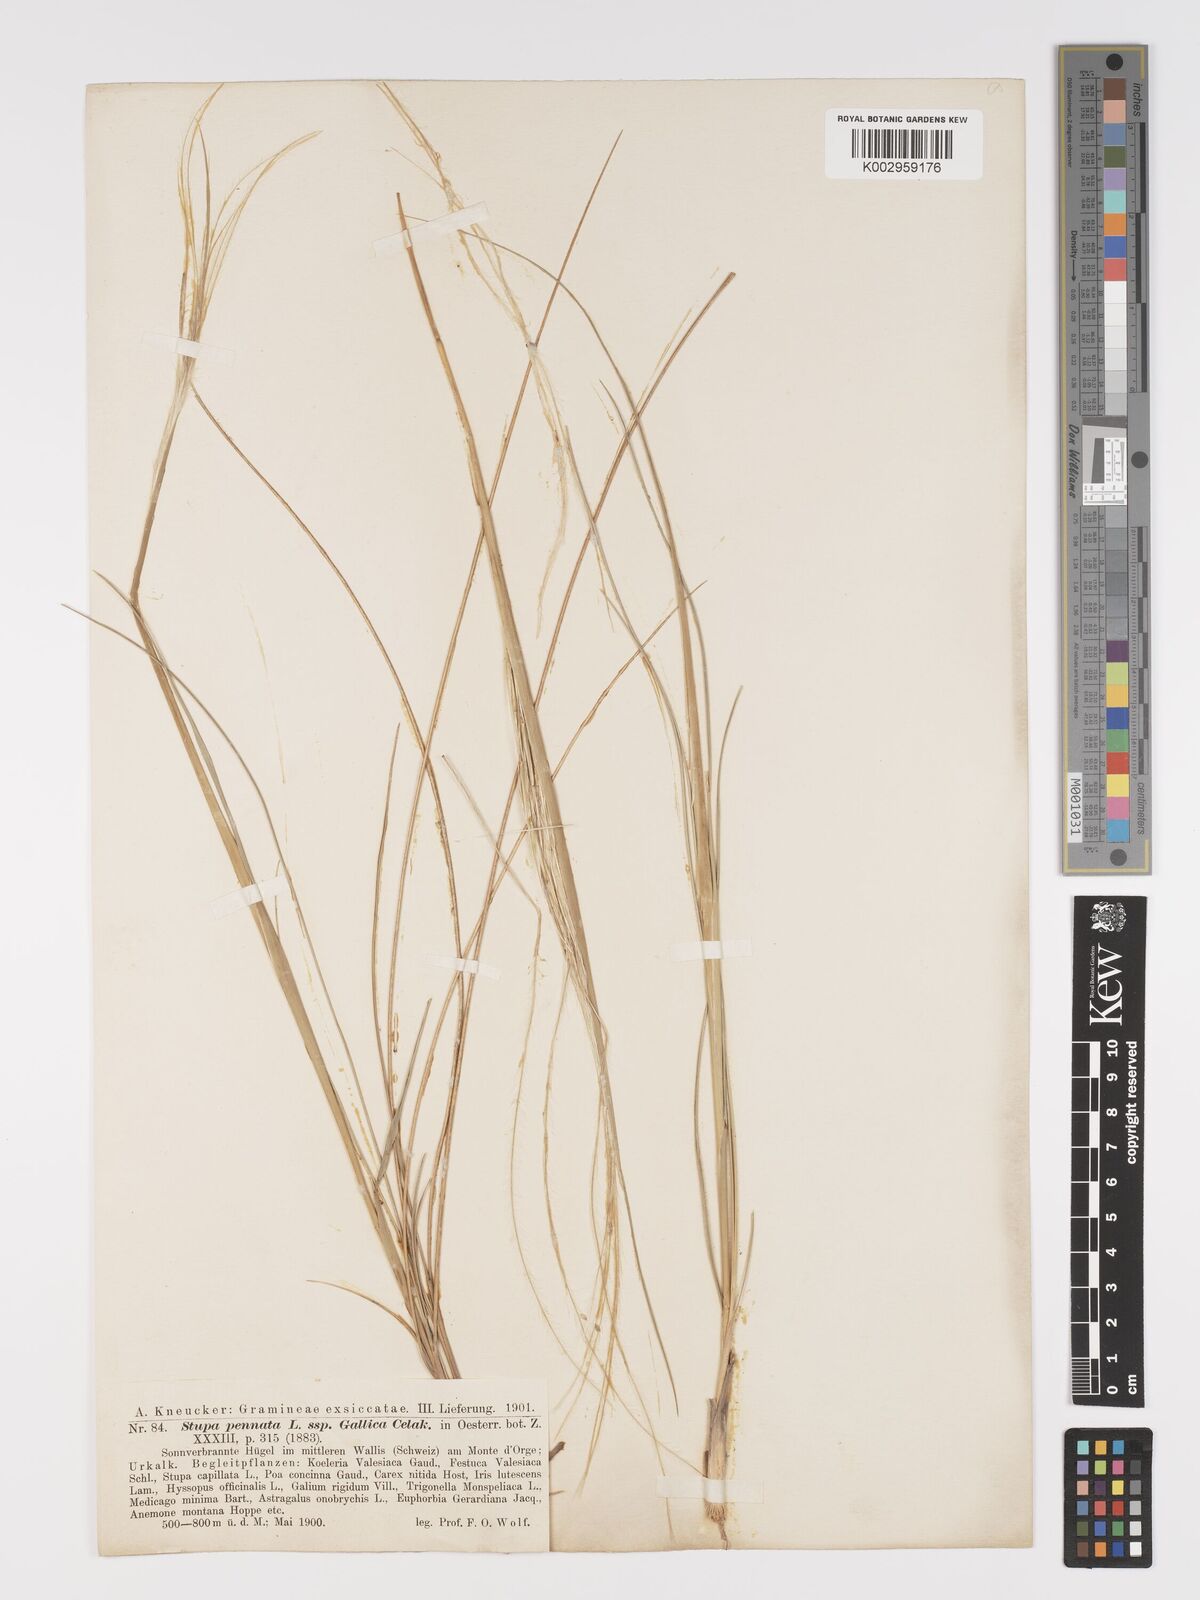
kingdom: Plantae
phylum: Tracheophyta
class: Liliopsida
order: Poales
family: Poaceae
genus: Stipa
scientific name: Stipa pennata
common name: European feather grass
